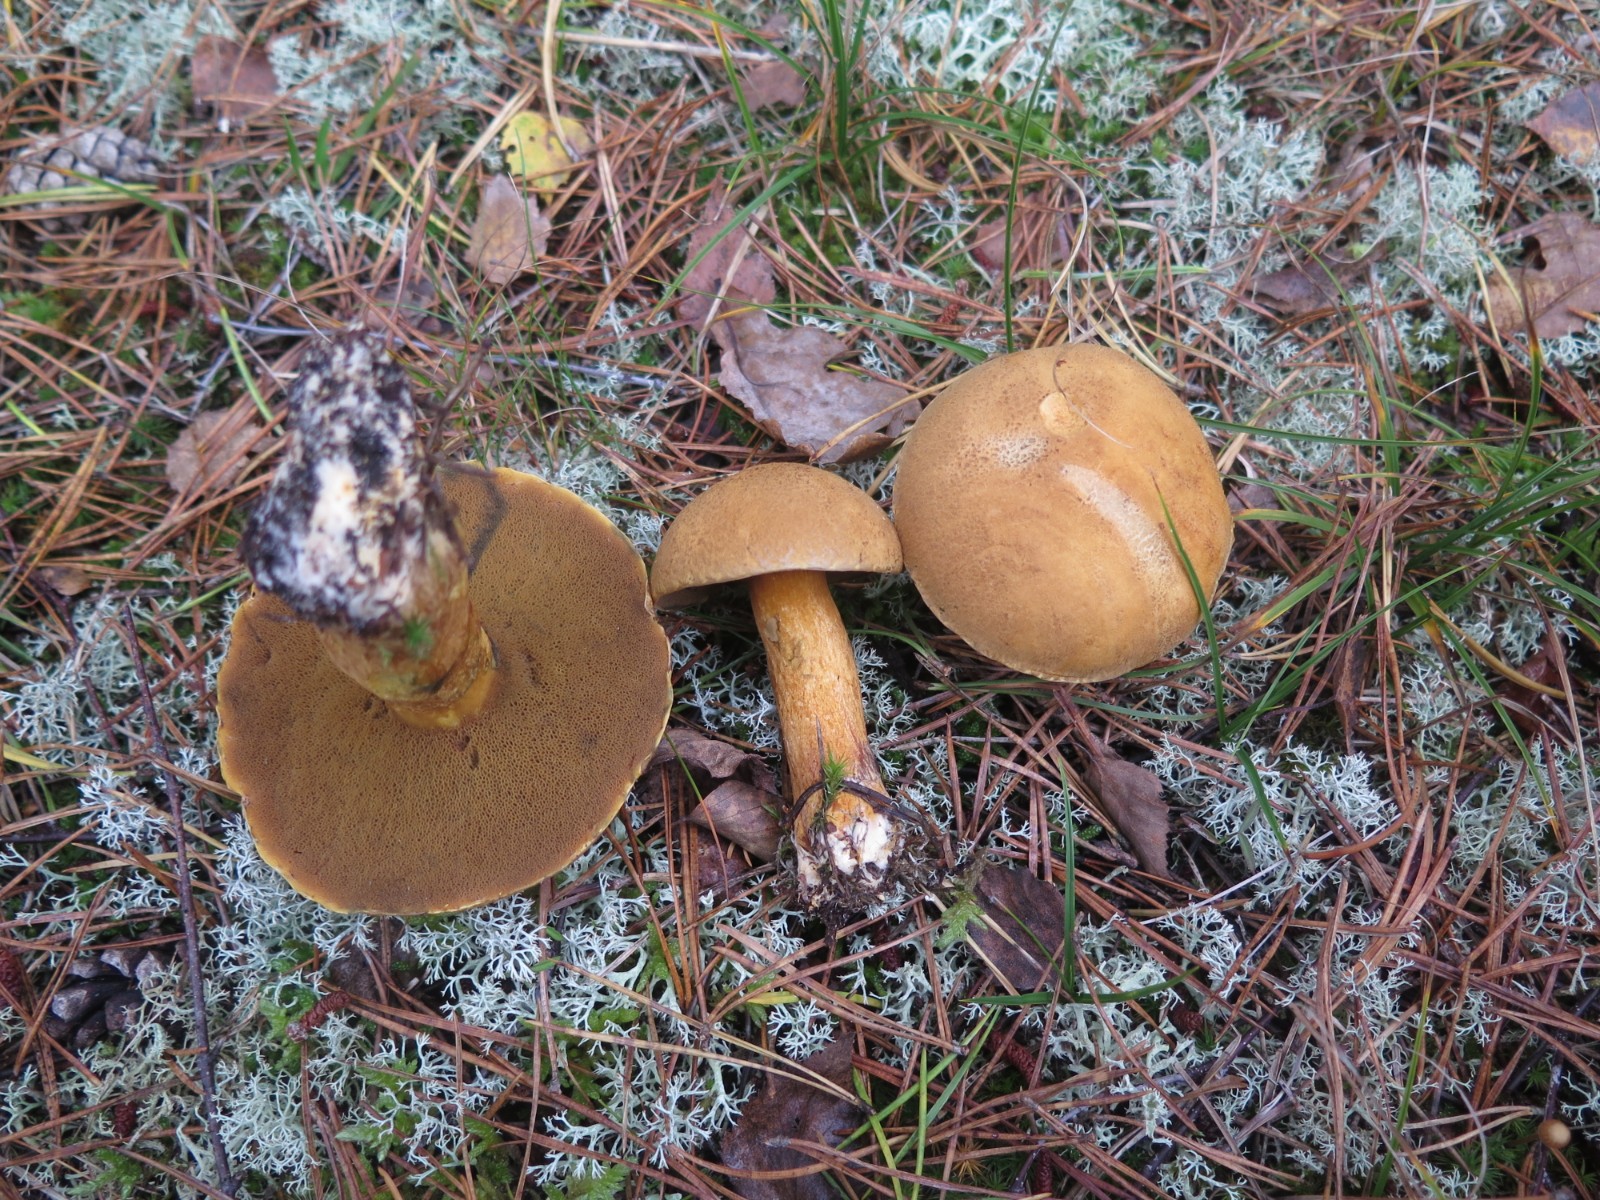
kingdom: Fungi
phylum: Basidiomycota
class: Agaricomycetes
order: Boletales
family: Suillaceae
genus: Suillus
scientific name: Suillus variegatus
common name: broget slimrørhat
